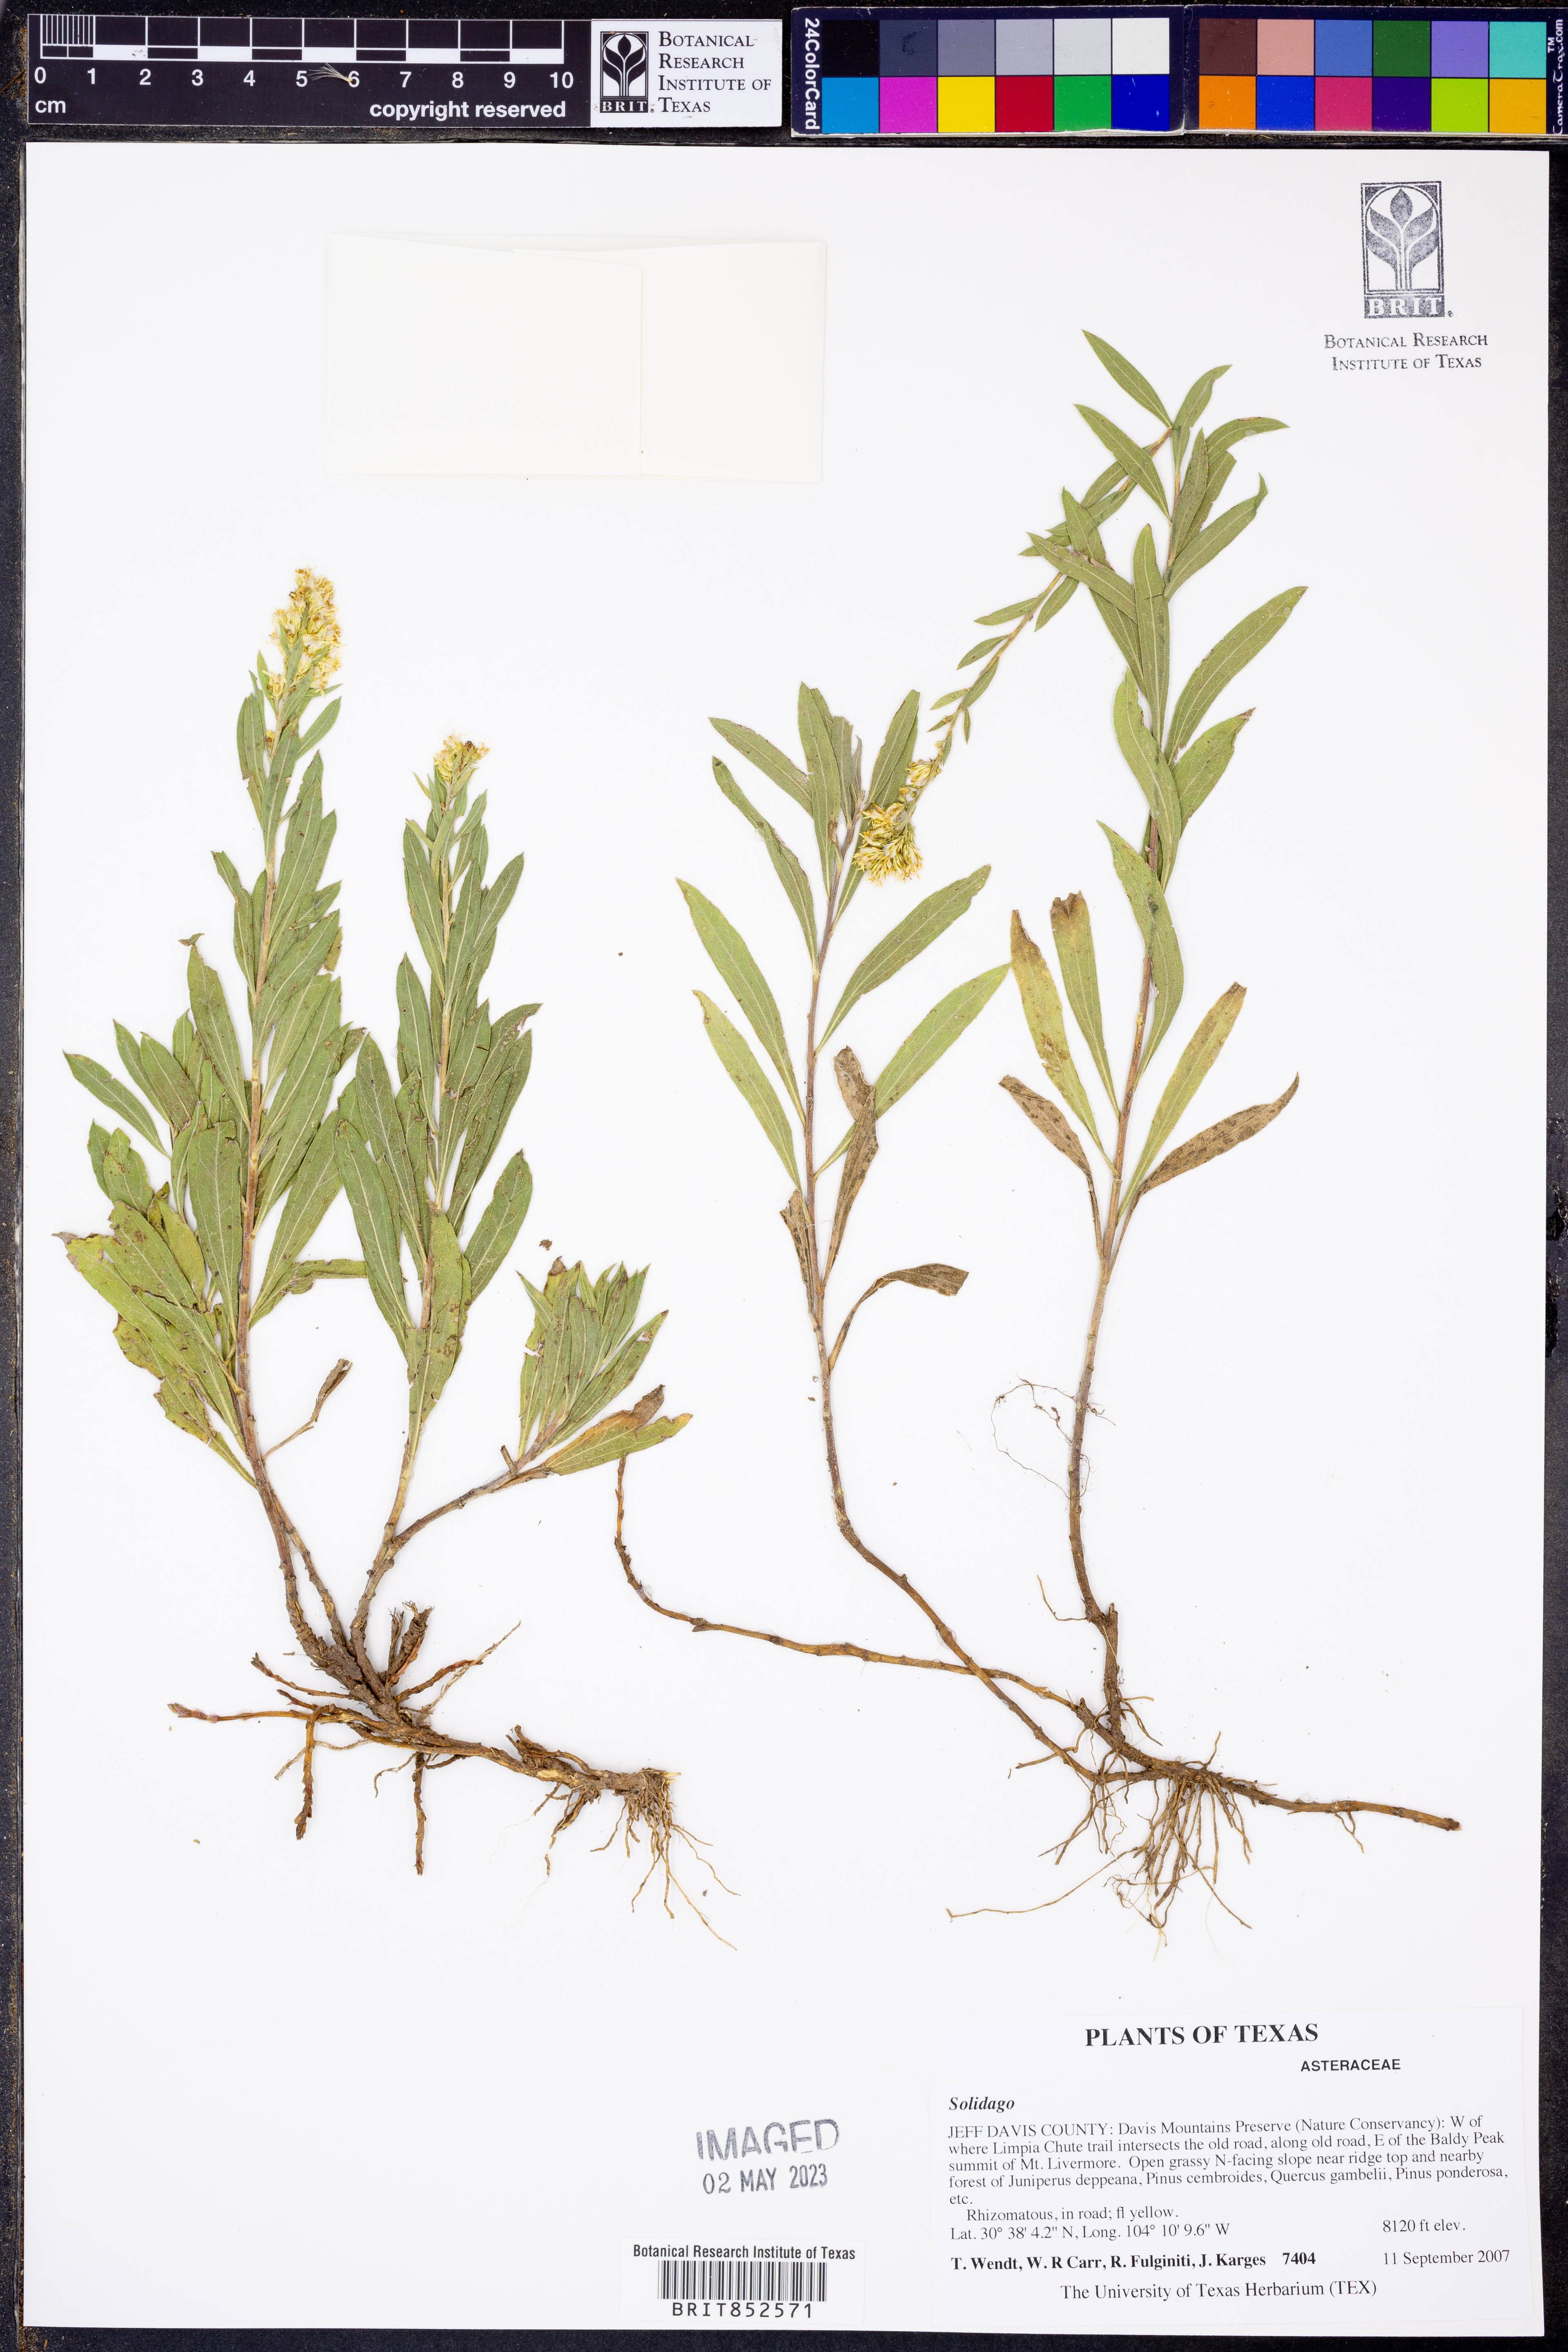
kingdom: Plantae
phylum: Tracheophyta
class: Magnoliopsida
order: Asterales
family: Asteraceae
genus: Solidago
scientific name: Solidago
